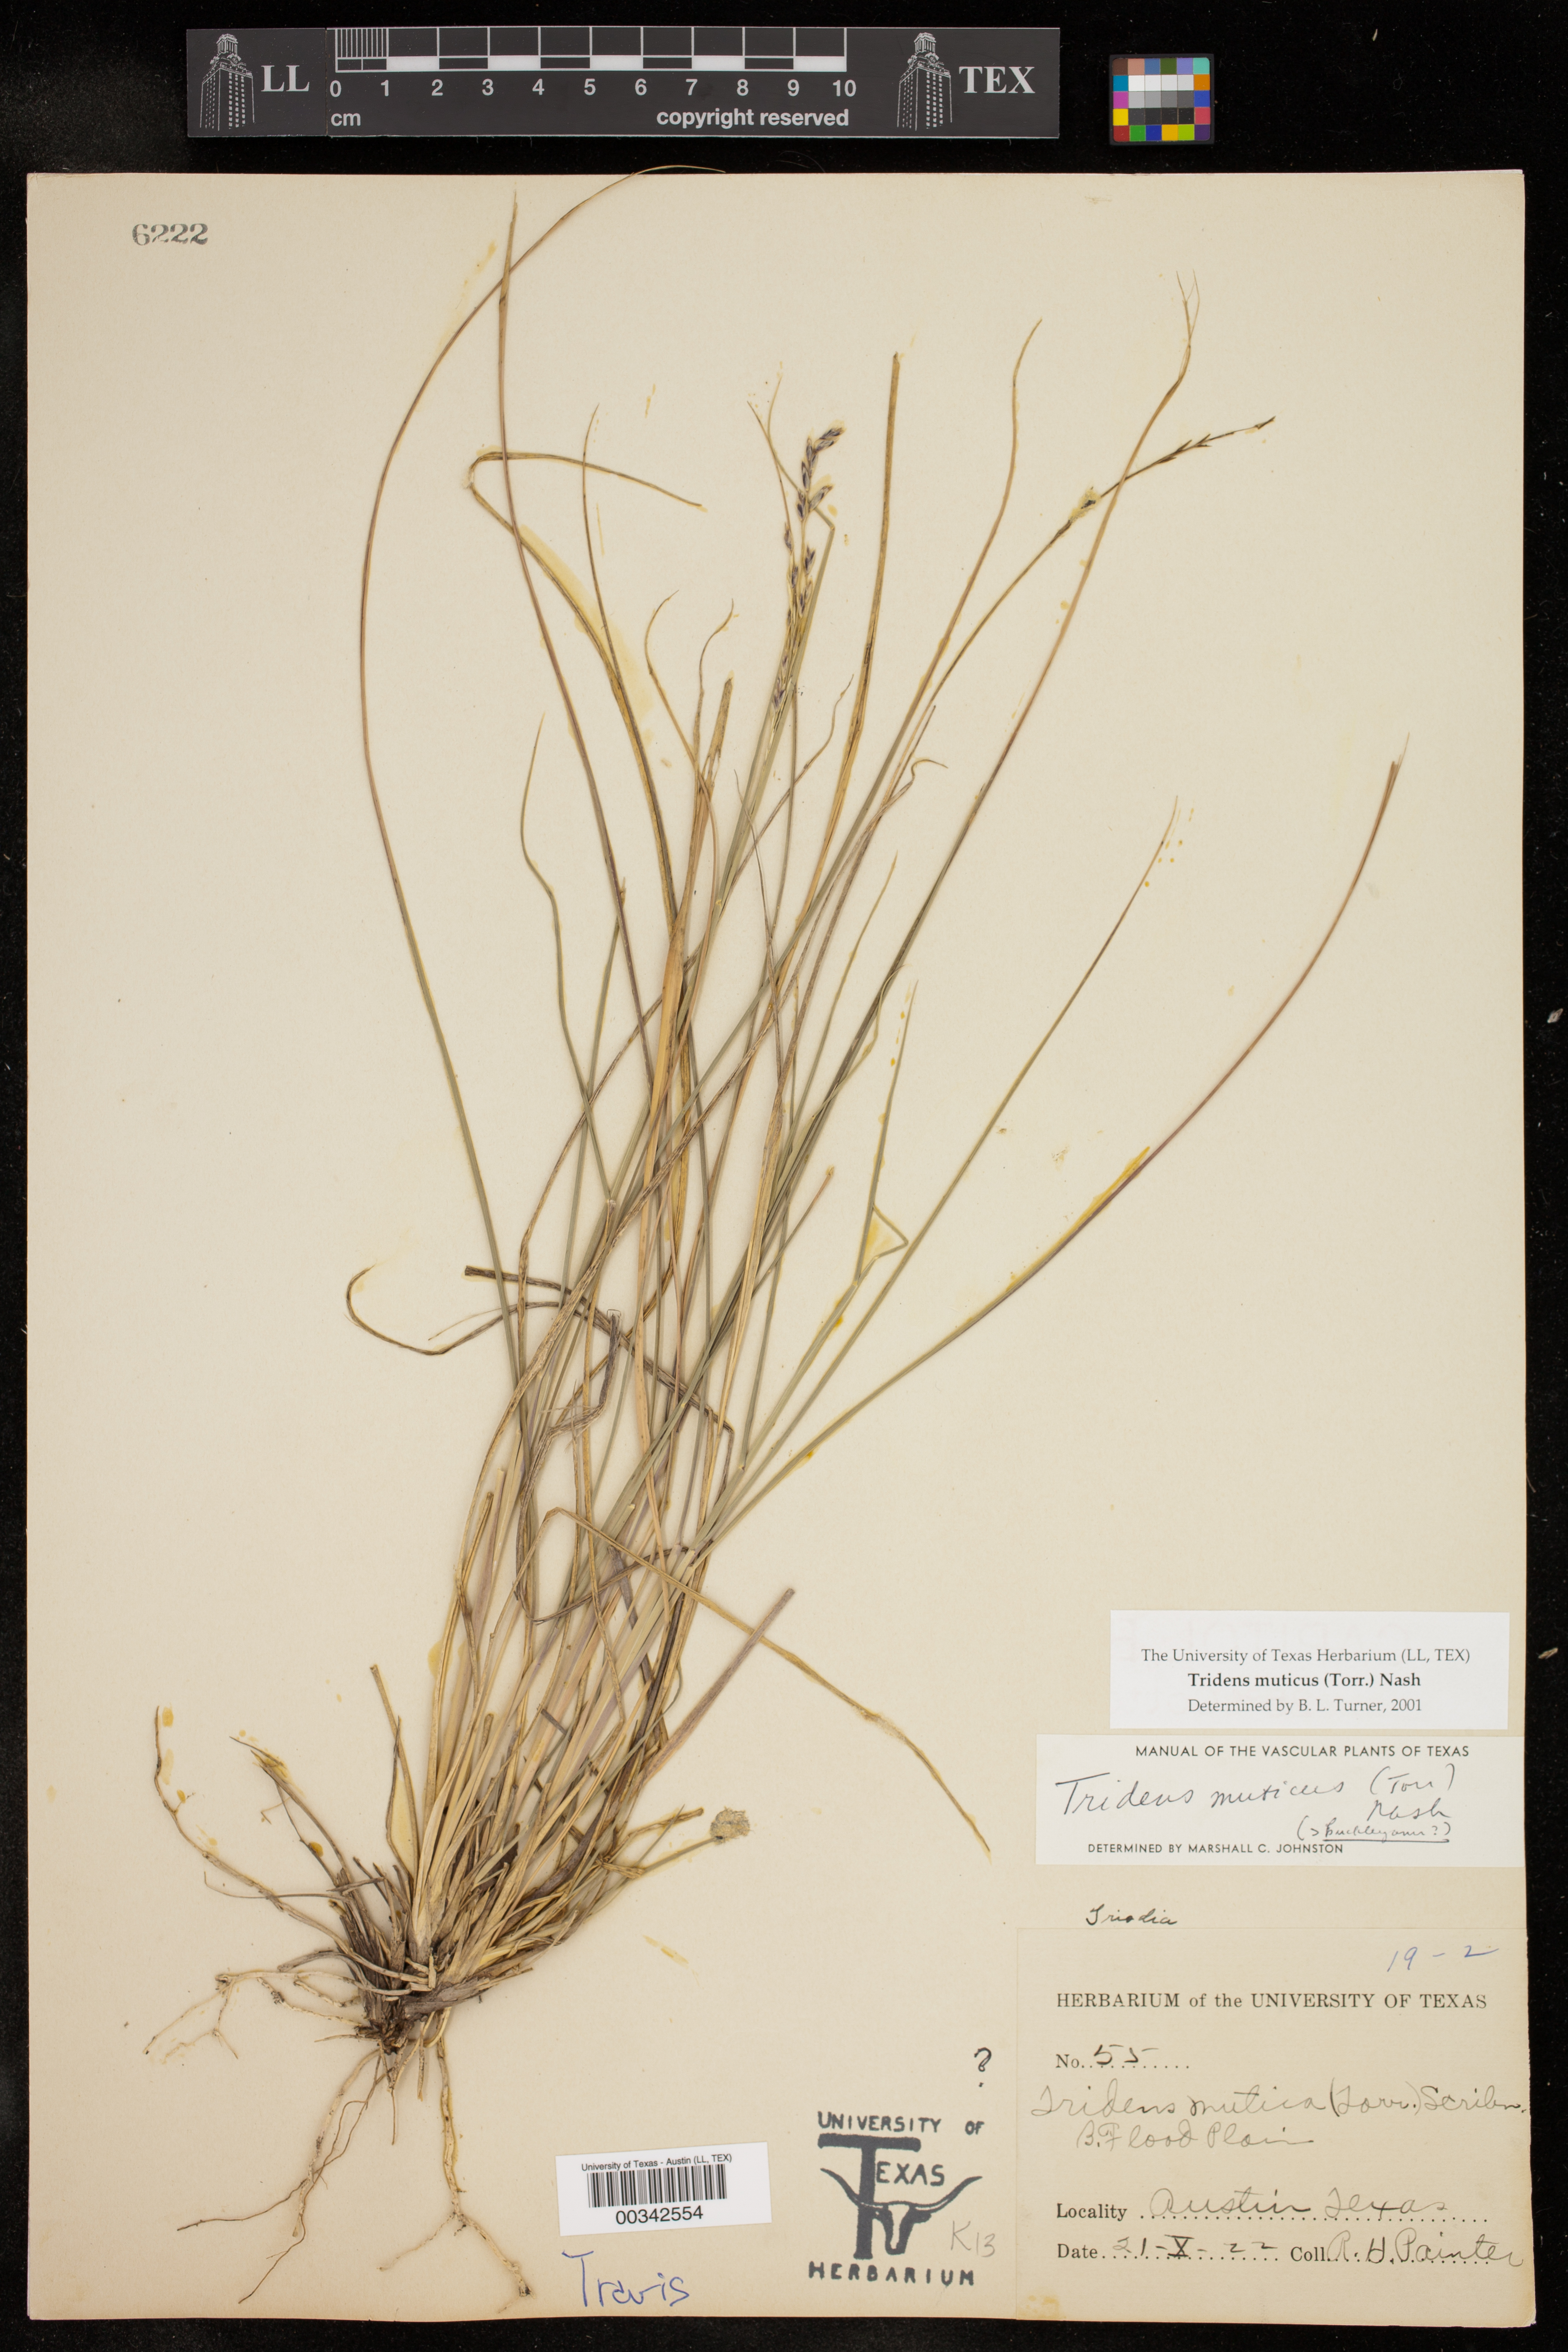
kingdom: Plantae
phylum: Tracheophyta
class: Liliopsida
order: Poales
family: Poaceae
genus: Tridentopsis
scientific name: Tridentopsis mutica
